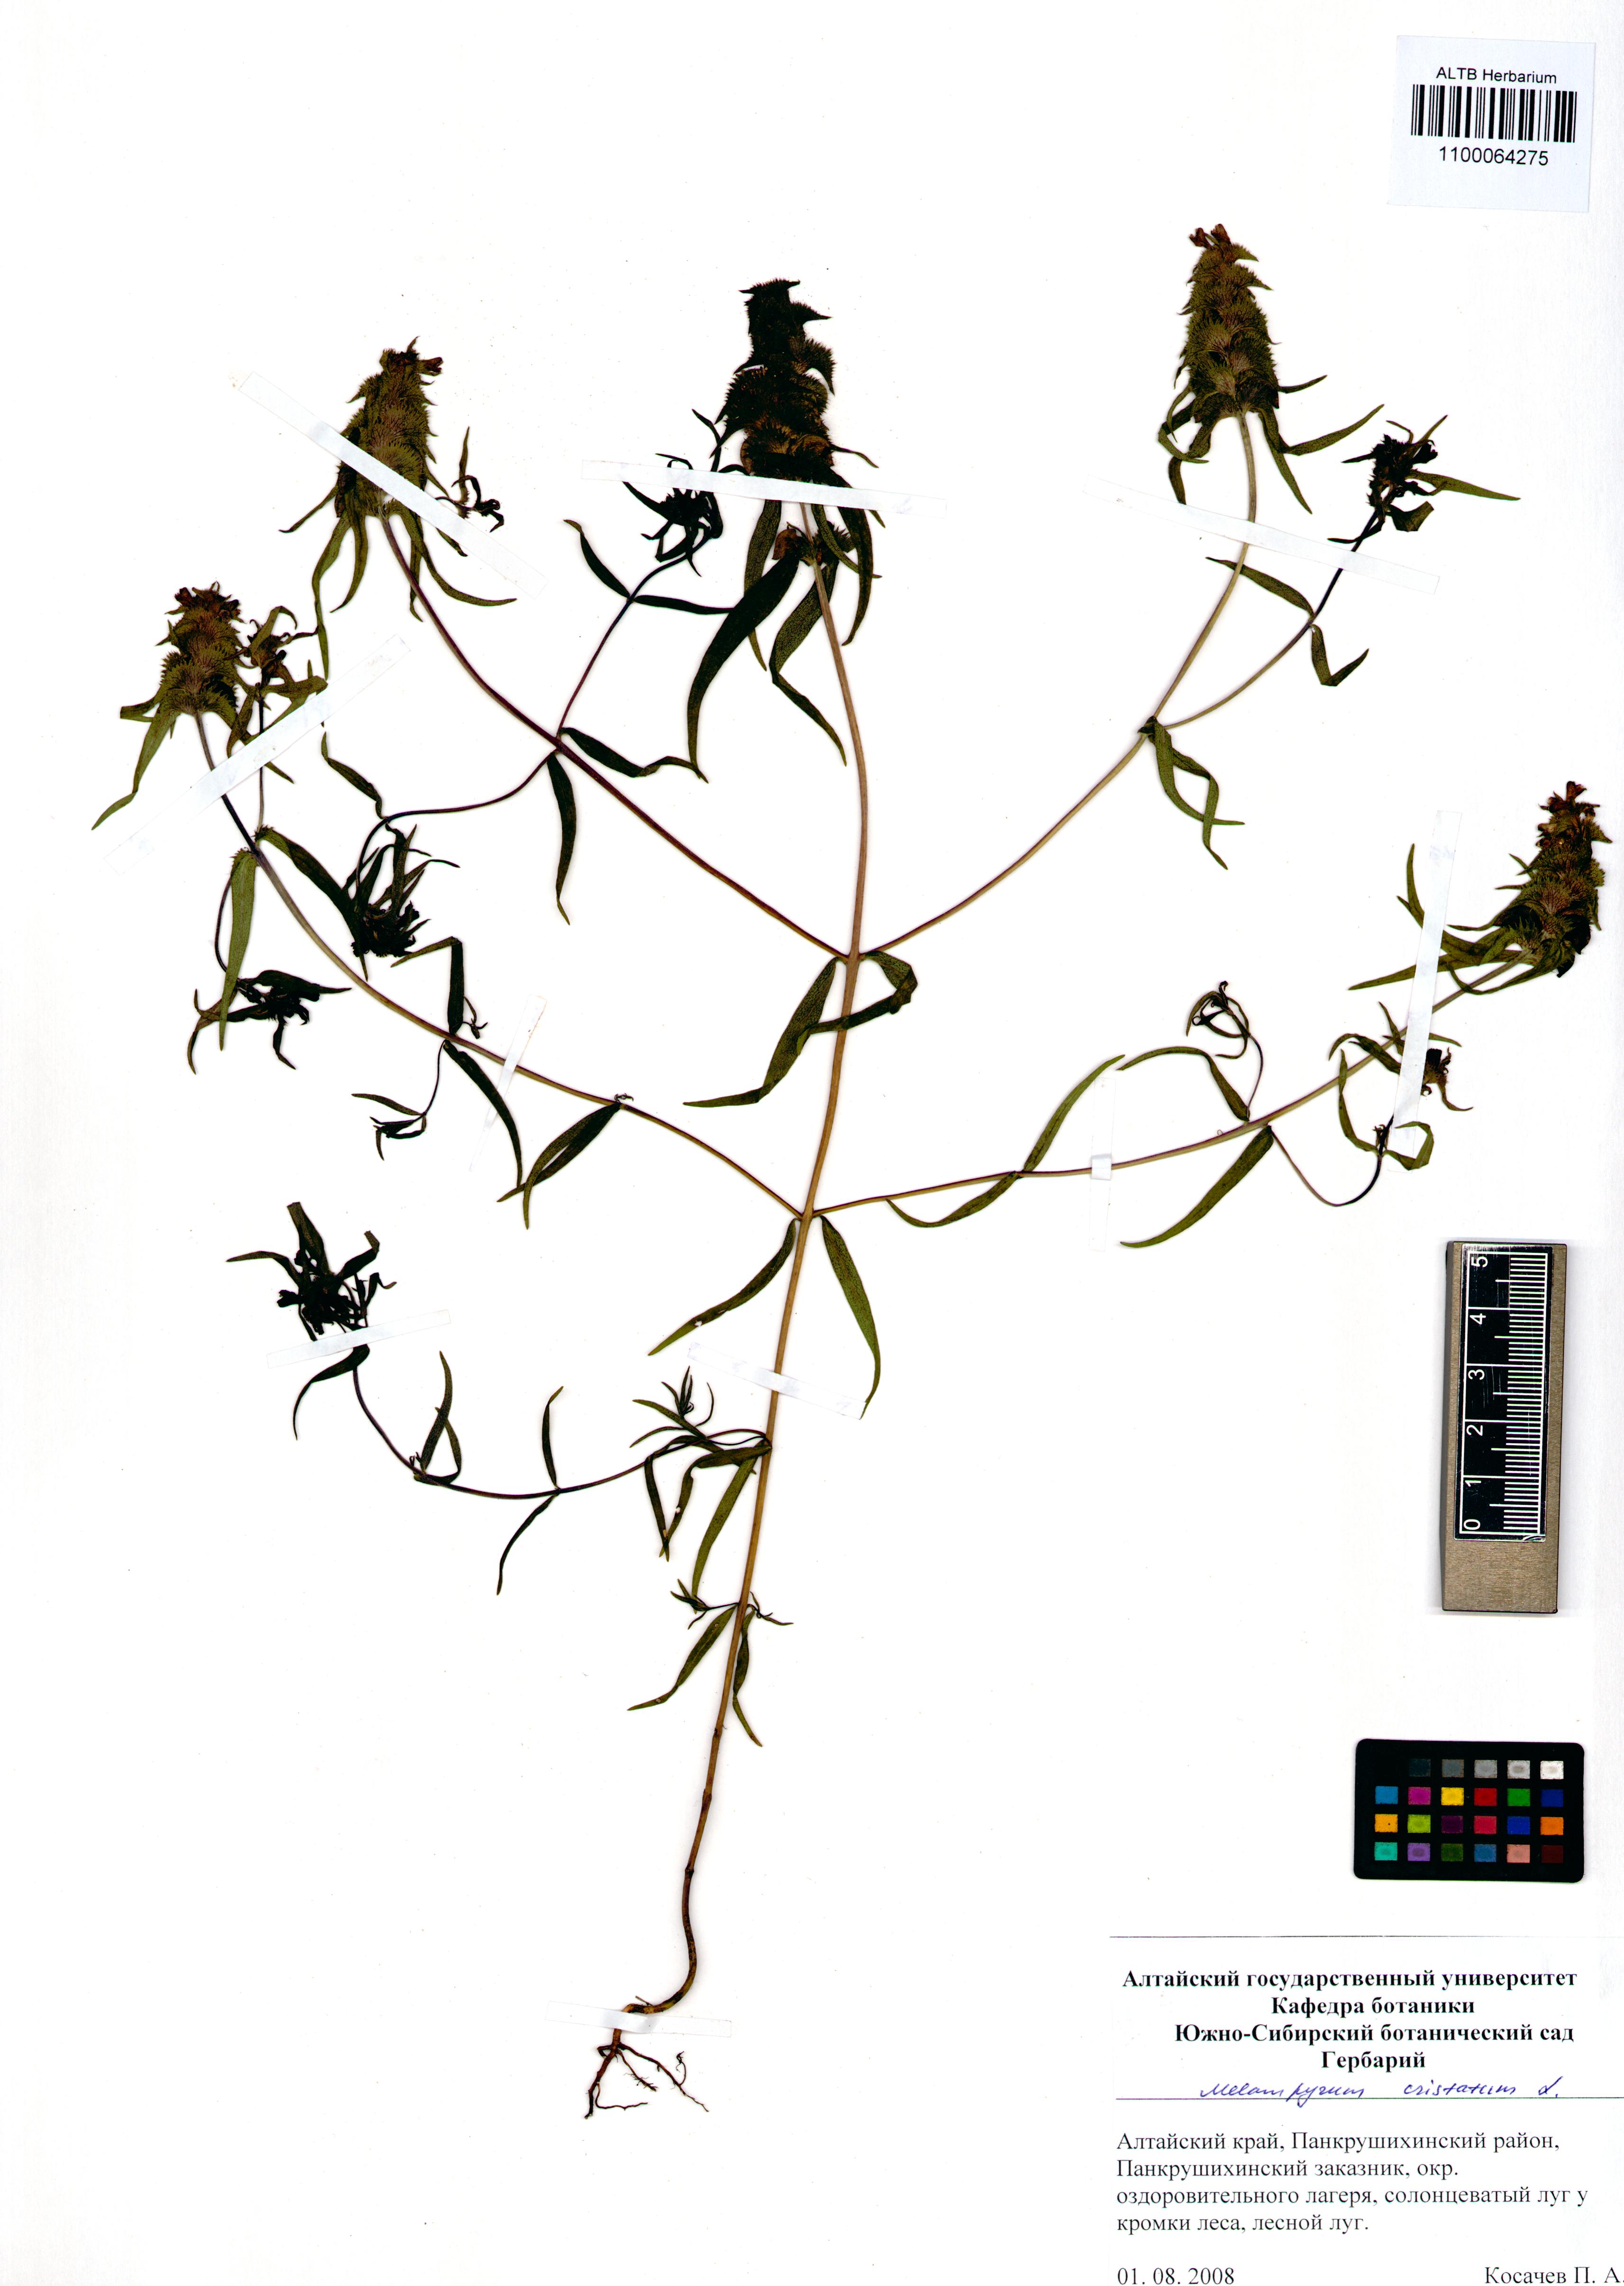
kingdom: Plantae
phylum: Tracheophyta
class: Magnoliopsida
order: Lamiales
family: Orobanchaceae
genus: Melampyrum
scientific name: Melampyrum cristatum
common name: Crested cow-wheat
